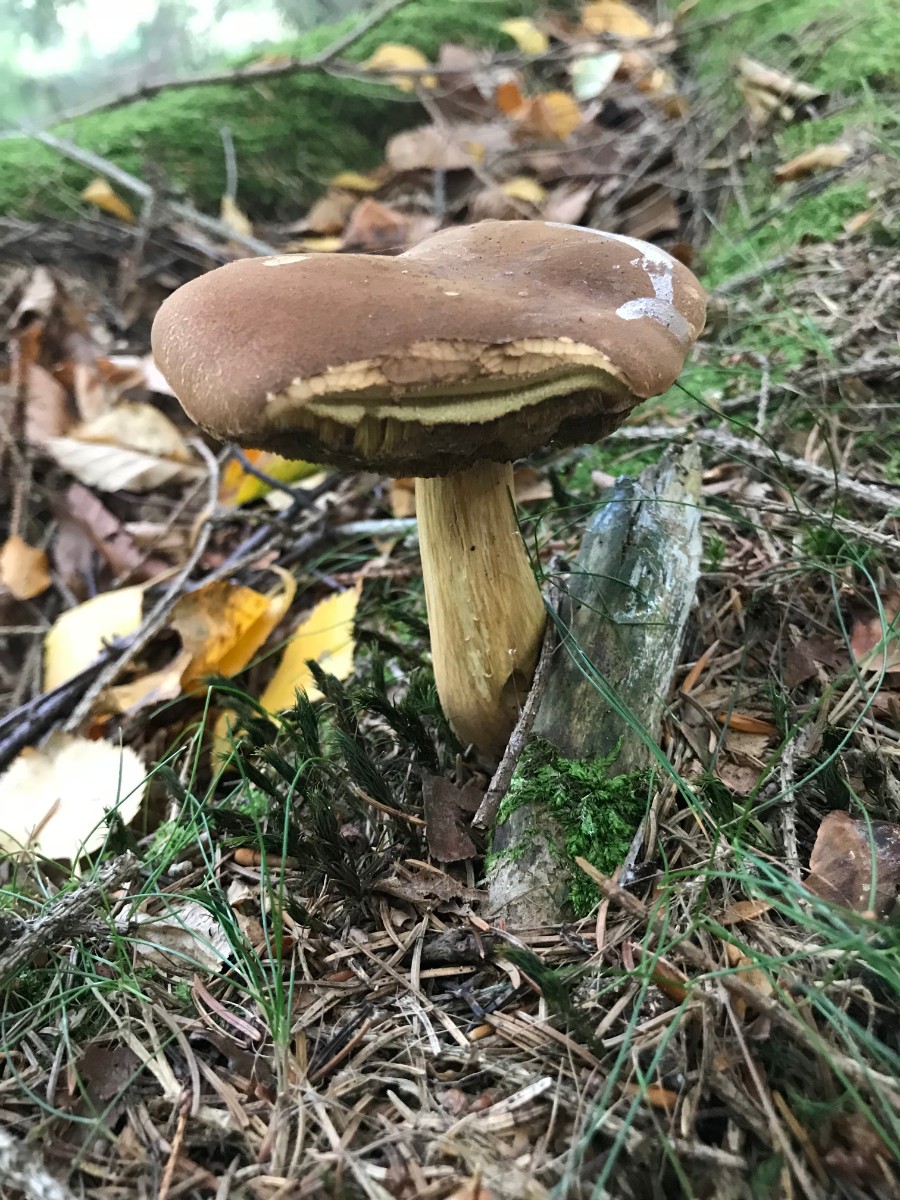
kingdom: Fungi
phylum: Basidiomycota
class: Agaricomycetes
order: Boletales
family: Boletaceae
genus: Imleria
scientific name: Imleria badia
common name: brunstokket rørhat
